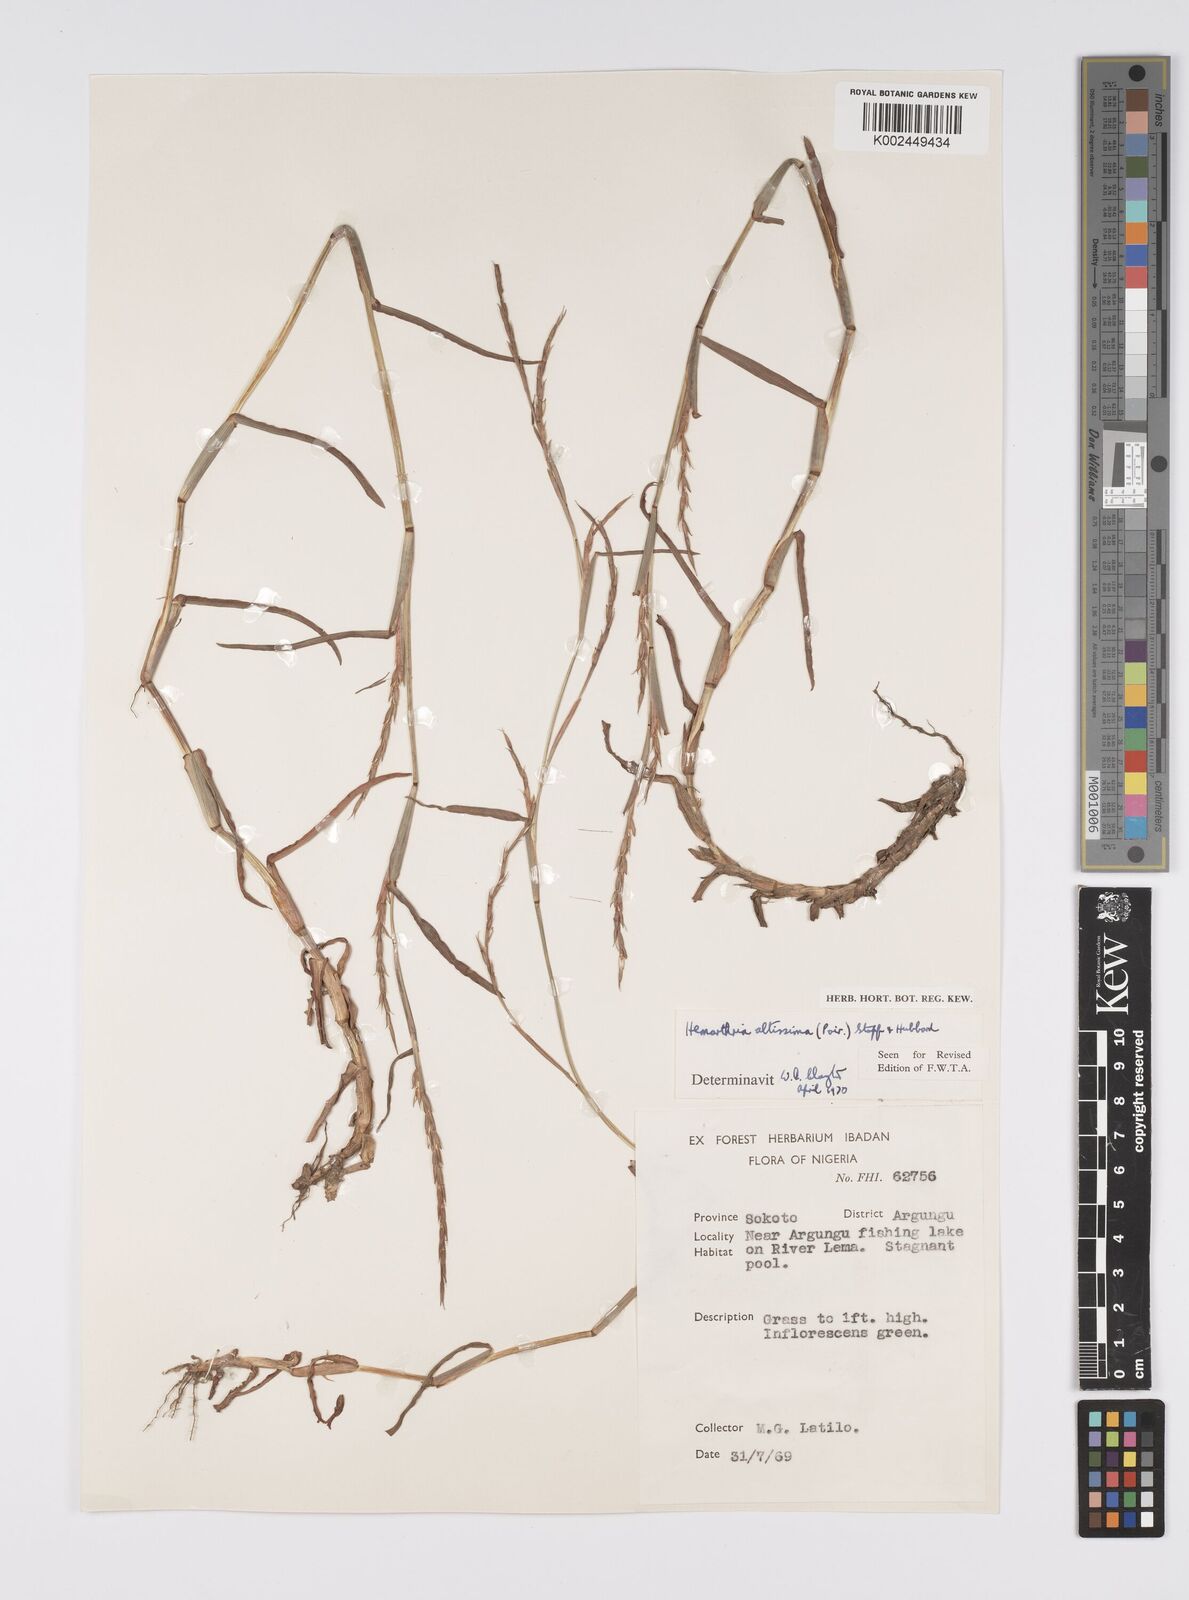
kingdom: Plantae
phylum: Tracheophyta
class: Liliopsida
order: Poales
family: Poaceae
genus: Hemarthria
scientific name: Hemarthria altissima
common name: African jointgrass
